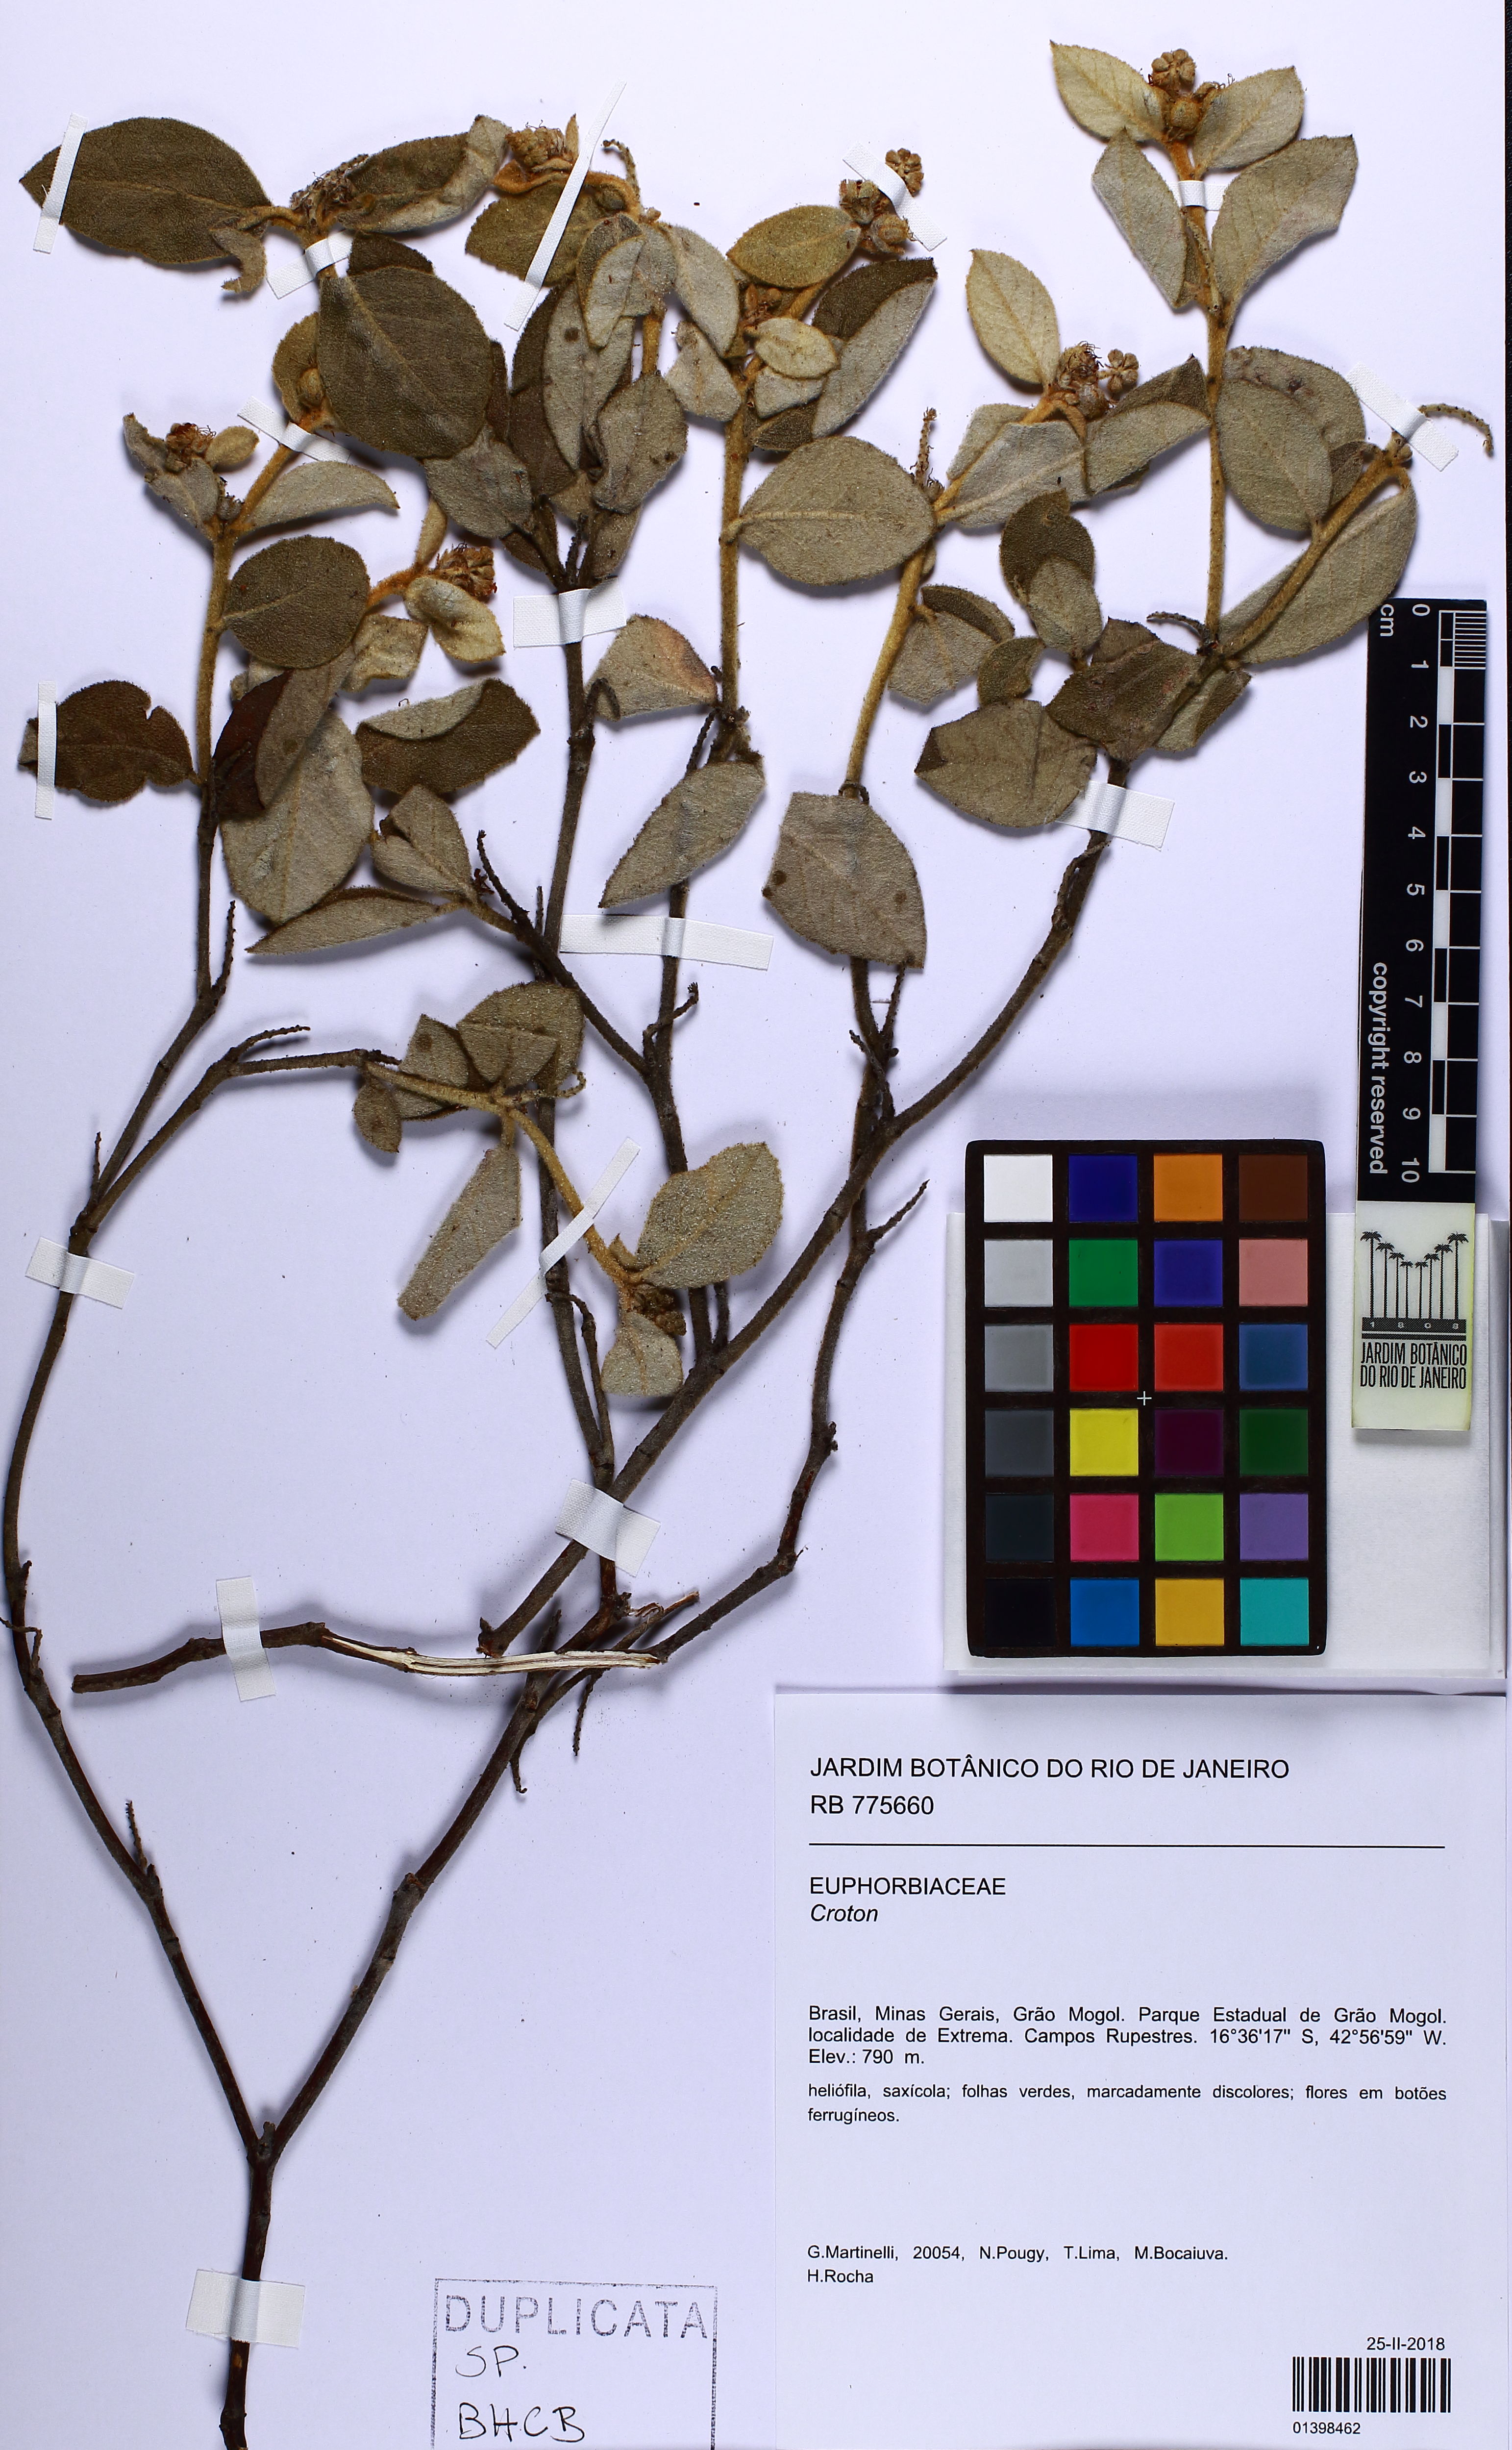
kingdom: Plantae
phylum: Tracheophyta
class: Magnoliopsida
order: Malpighiales
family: Euphorbiaceae
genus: Croton
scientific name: Croton
